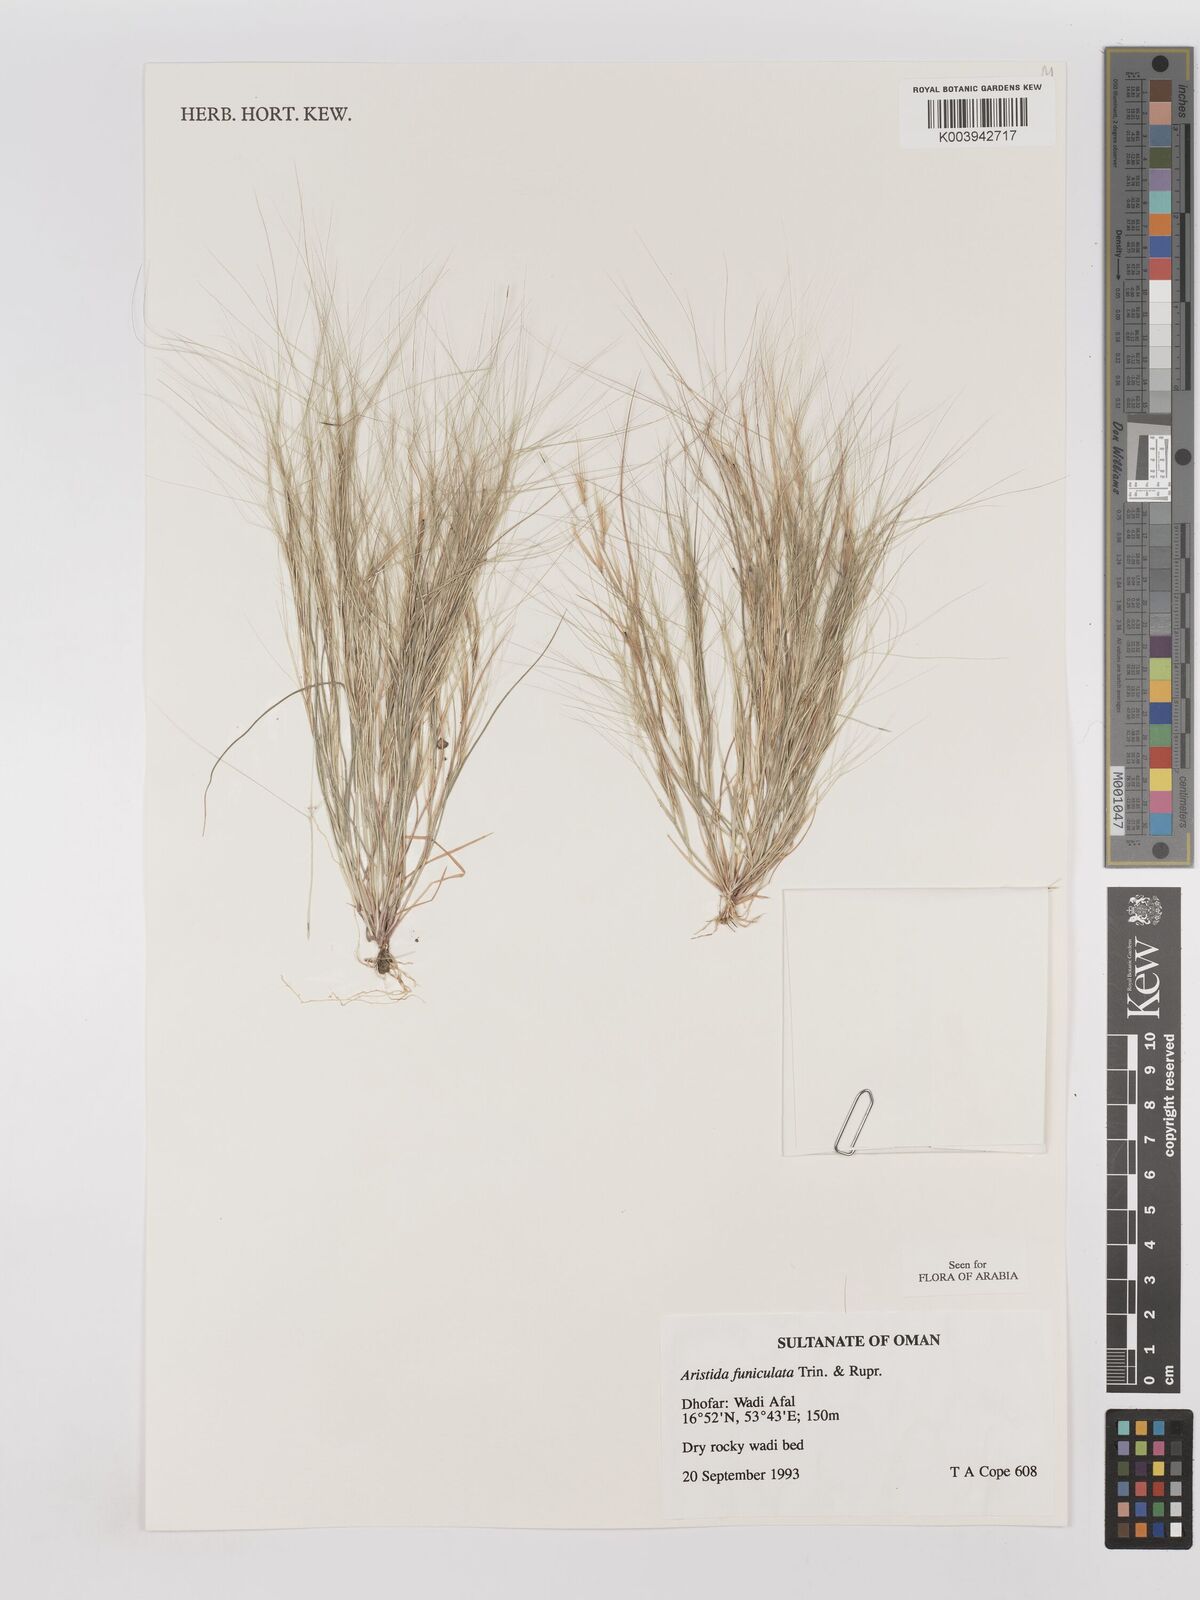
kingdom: Plantae
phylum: Tracheophyta
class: Liliopsida
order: Poales
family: Poaceae
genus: Aristida
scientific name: Aristida funiculata
